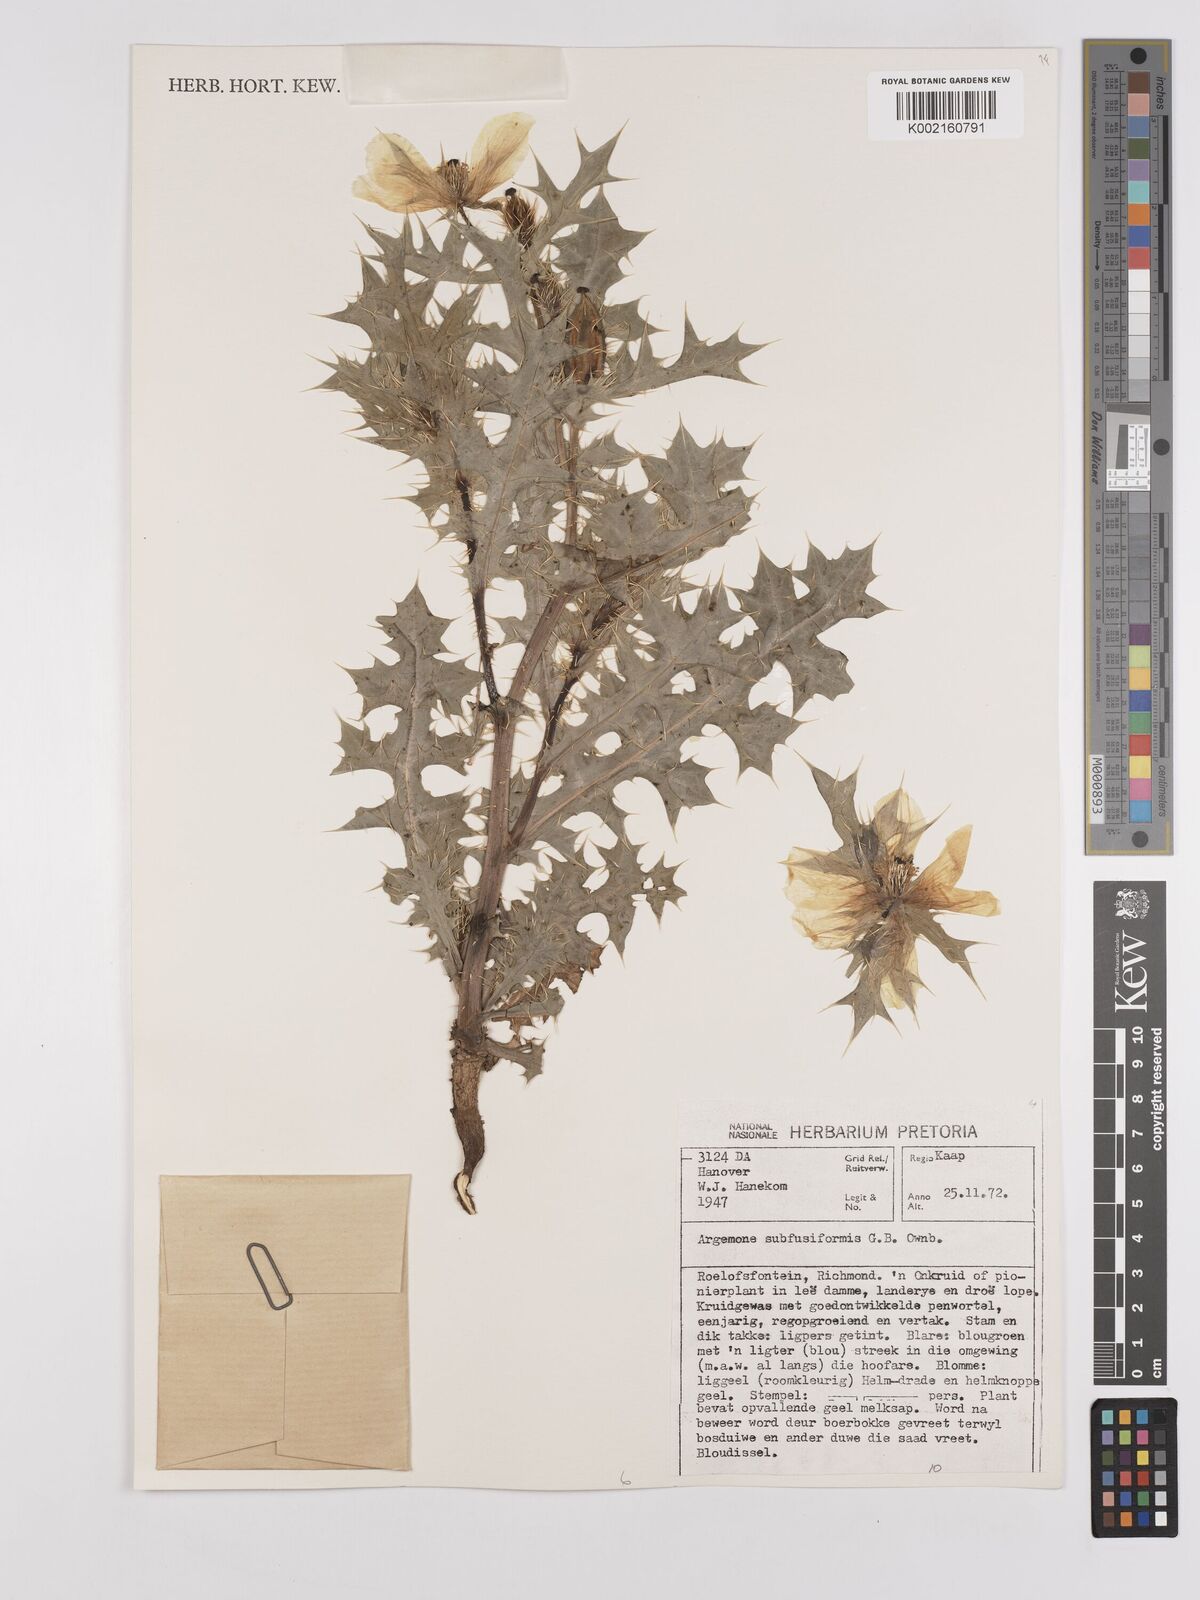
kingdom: Plantae
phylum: Tracheophyta
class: Magnoliopsida
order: Ranunculales
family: Papaveraceae
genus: Argemone
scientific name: Argemone subfusiformis
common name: American-poppy
